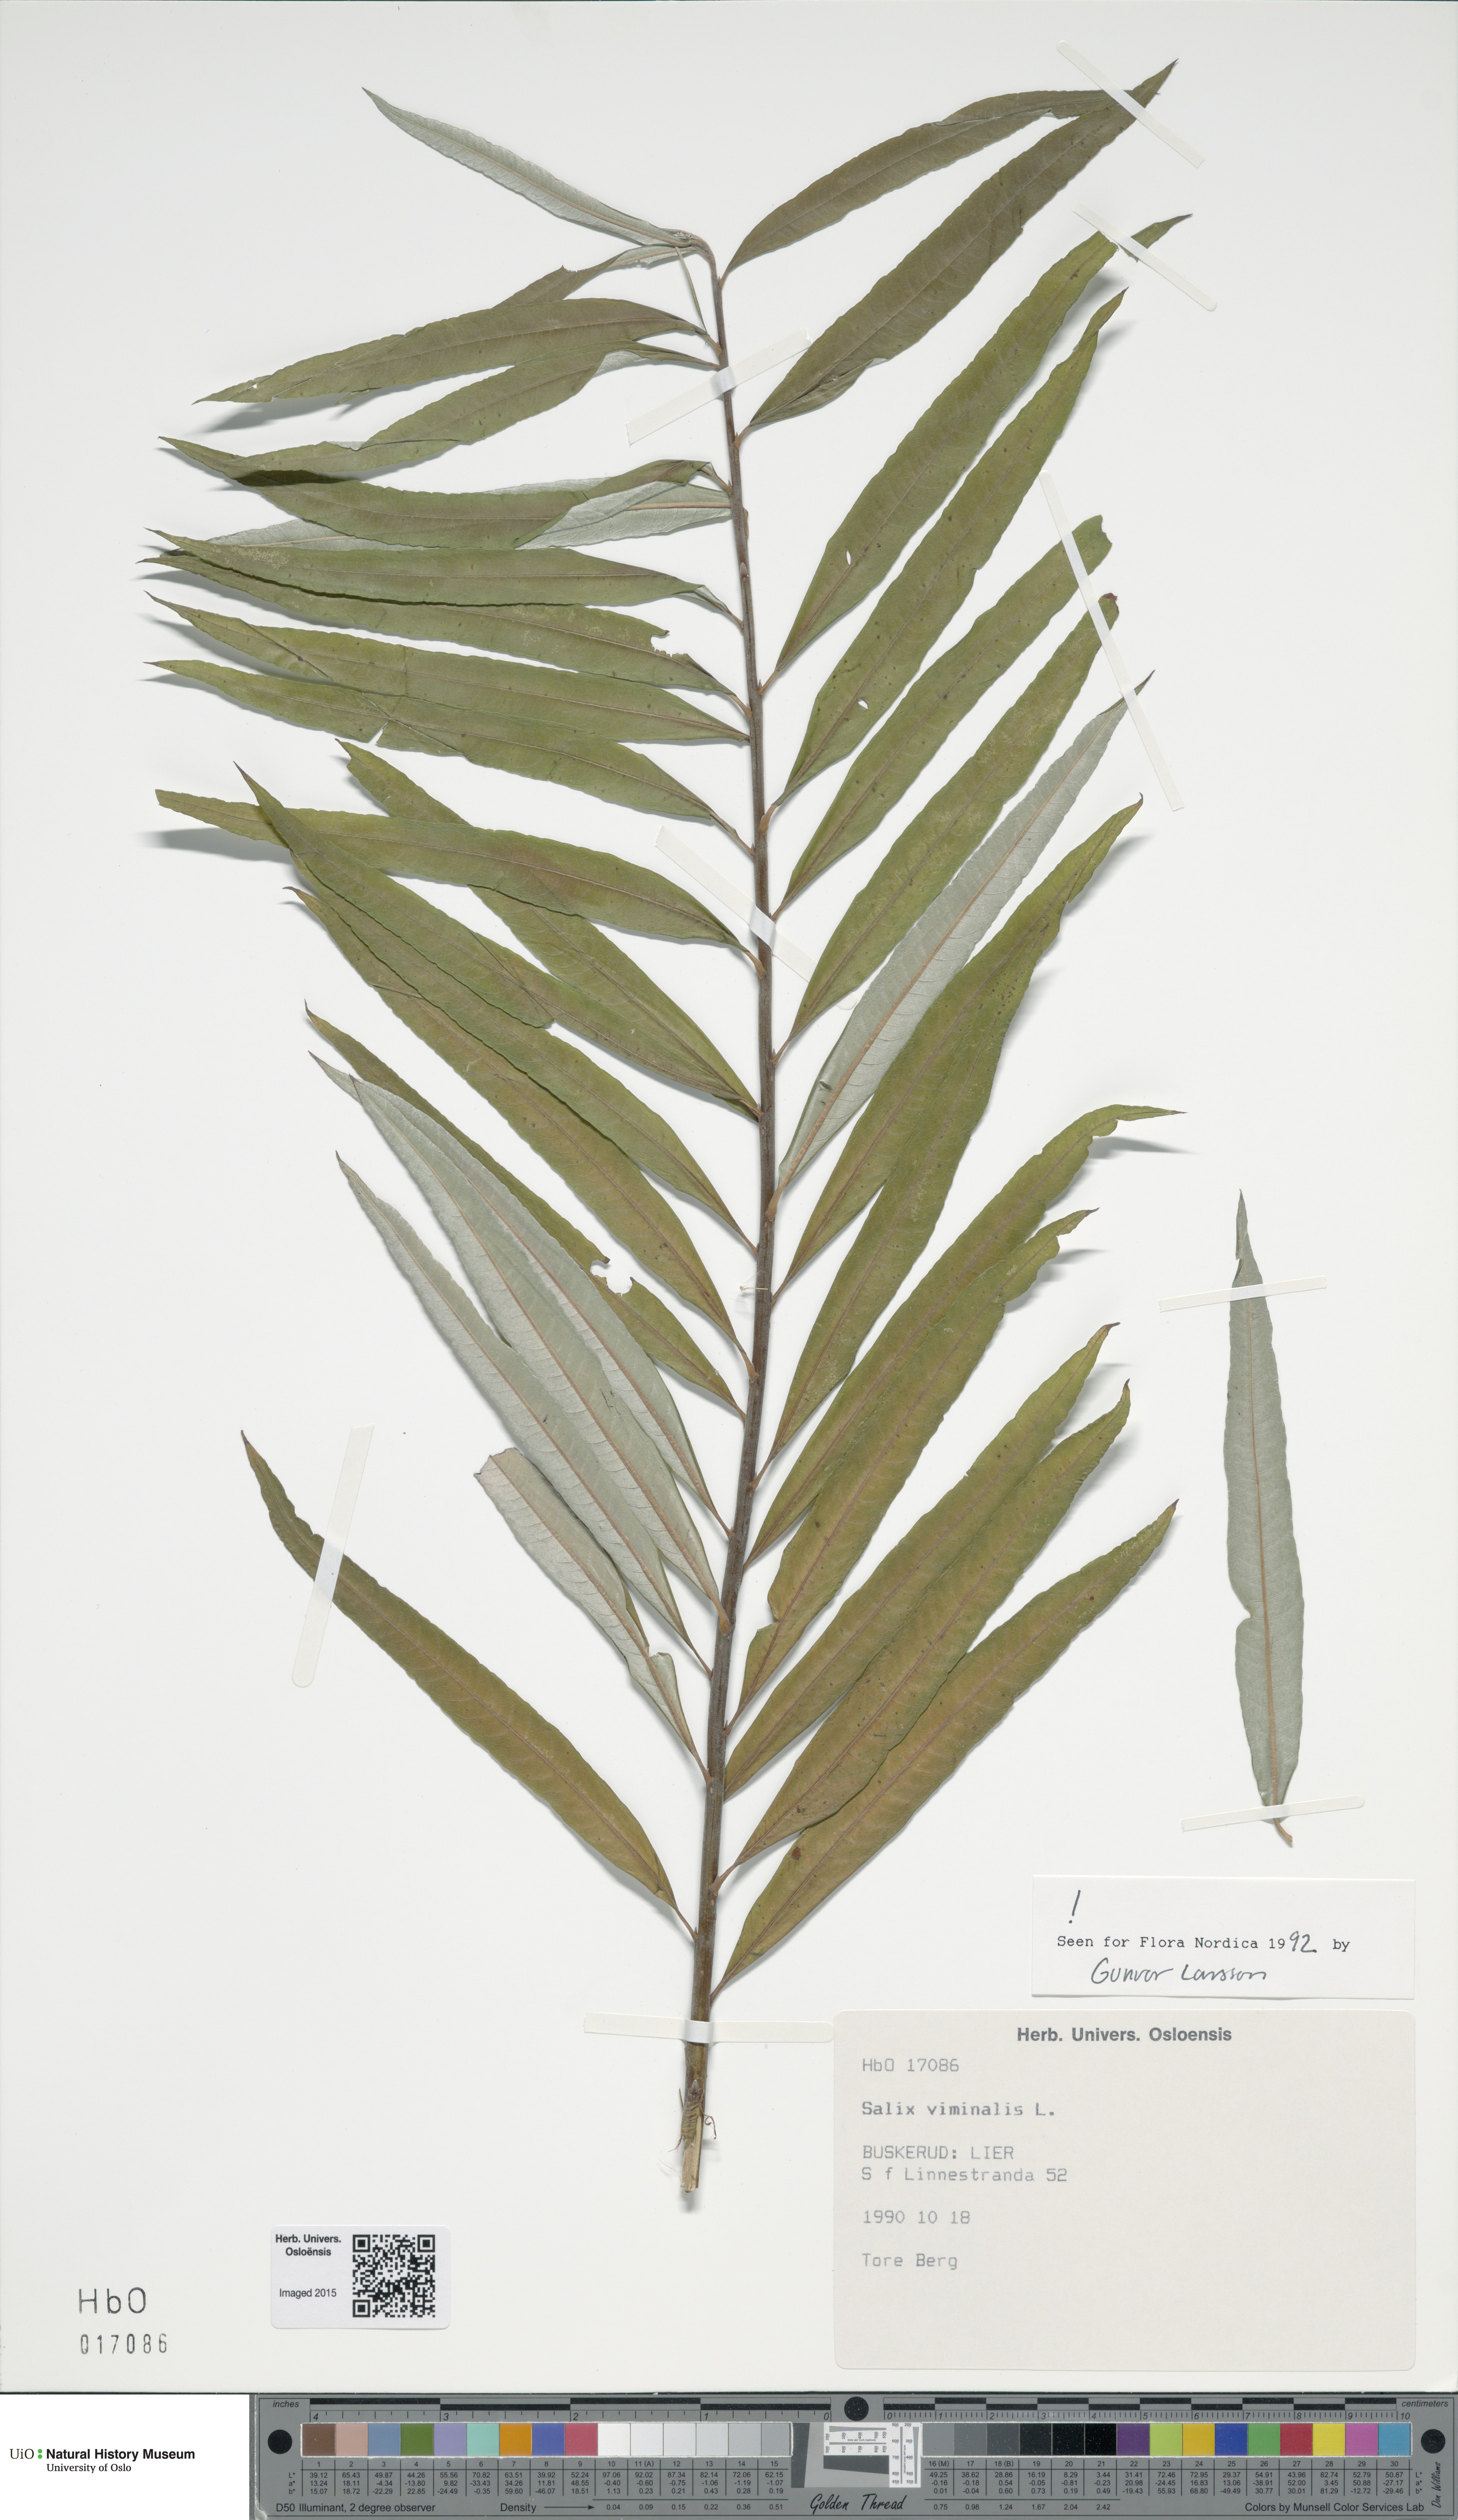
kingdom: Plantae
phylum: Tracheophyta
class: Magnoliopsida
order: Malpighiales
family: Salicaceae
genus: Salix
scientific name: Salix viminalis
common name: Osier
